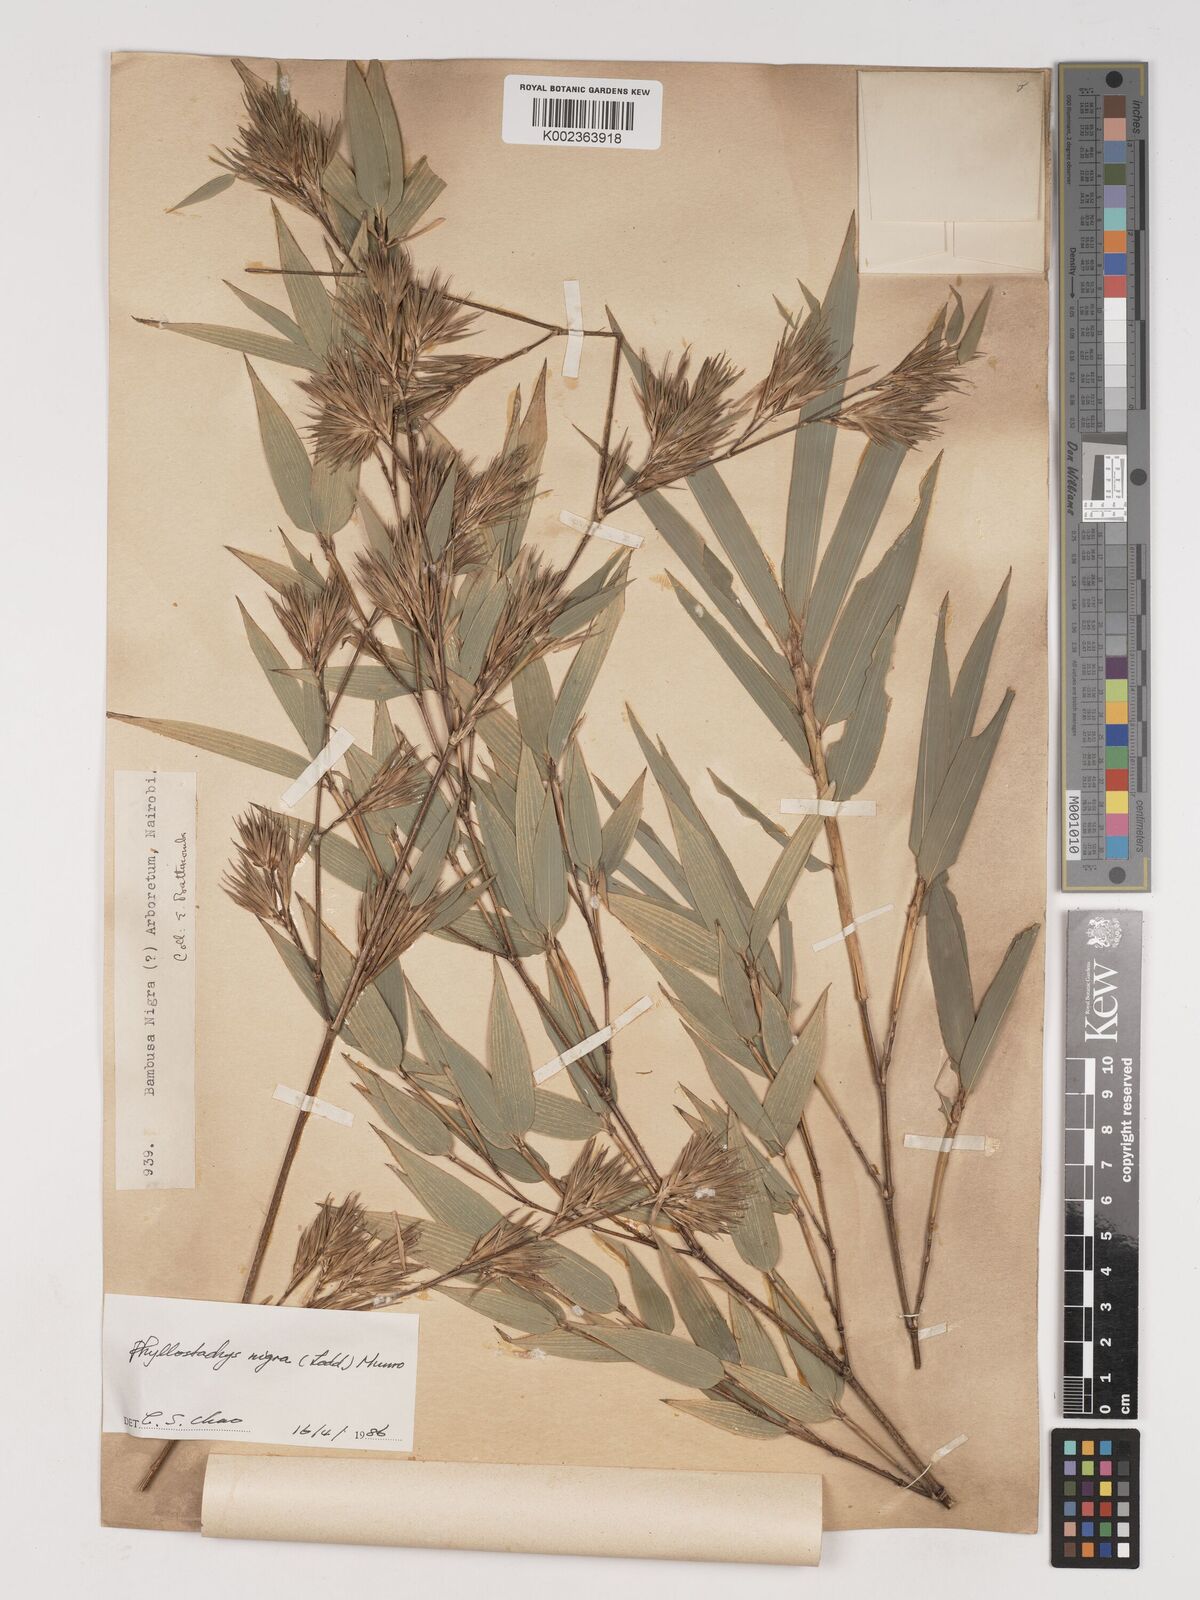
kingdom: Plantae
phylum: Tracheophyta
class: Liliopsida
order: Poales
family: Poaceae
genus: Phyllostachys
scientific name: Phyllostachys nigra
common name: Black bamboo
